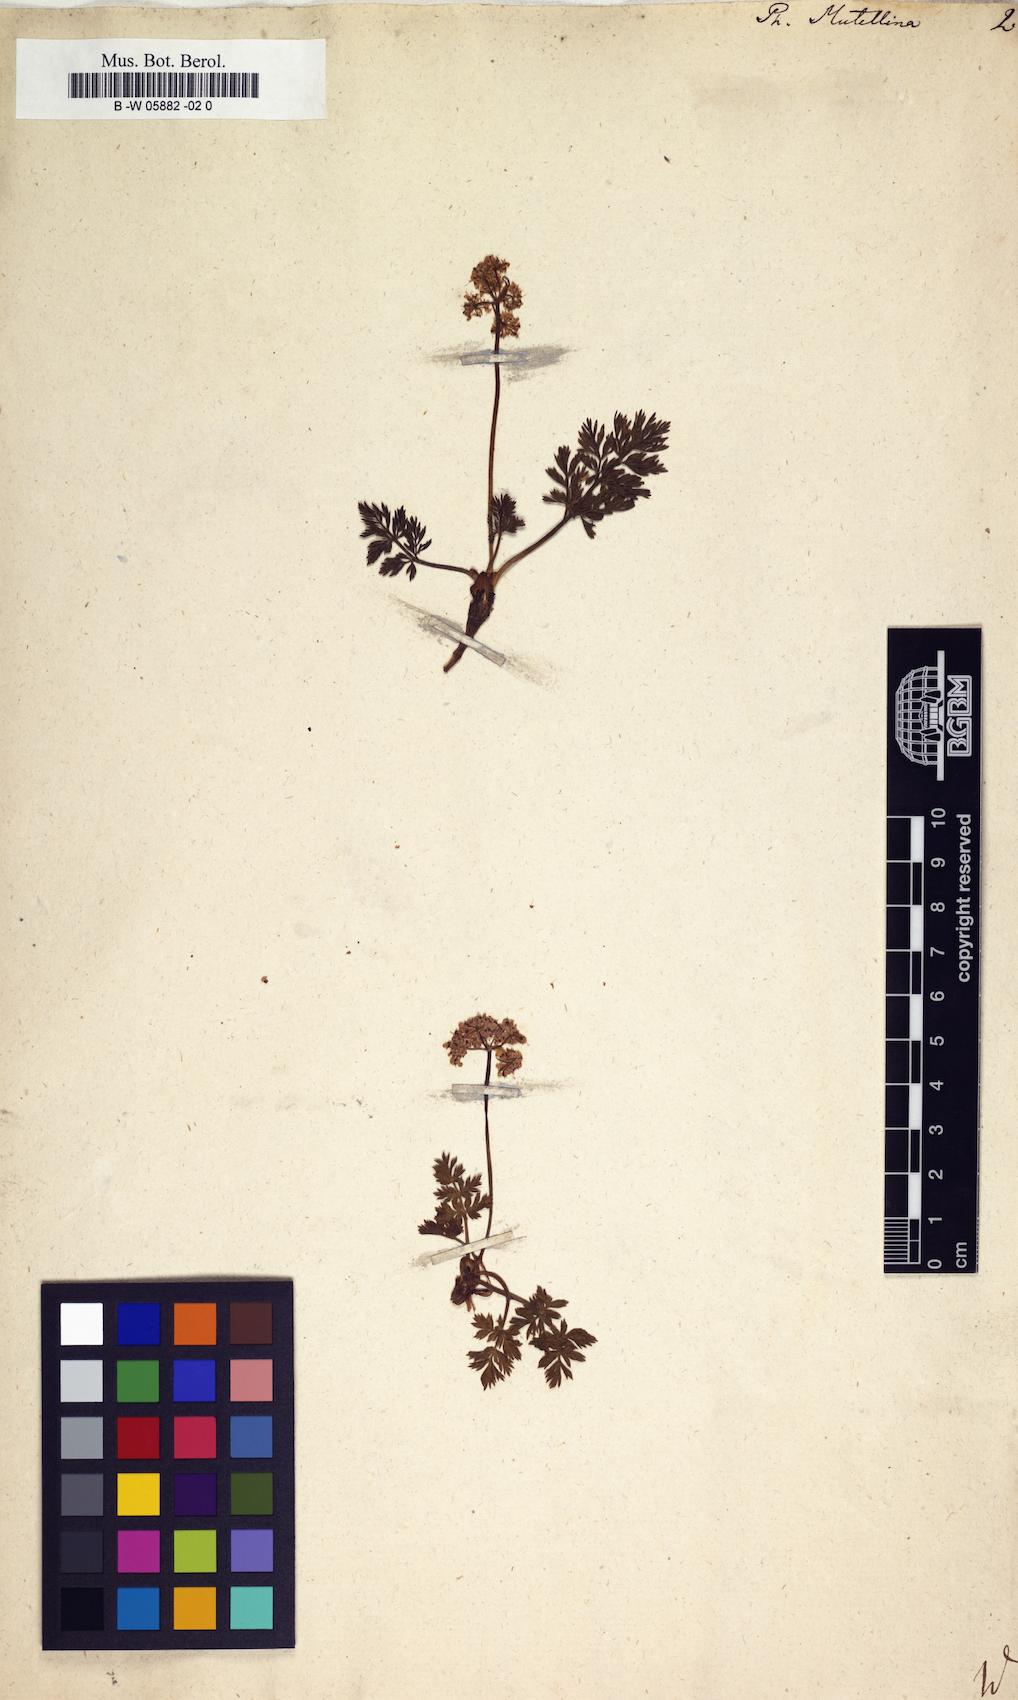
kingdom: Plantae
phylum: Tracheophyta
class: Magnoliopsida
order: Apiales
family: Apiaceae
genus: Mutellina
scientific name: Mutellina adonidifolia
